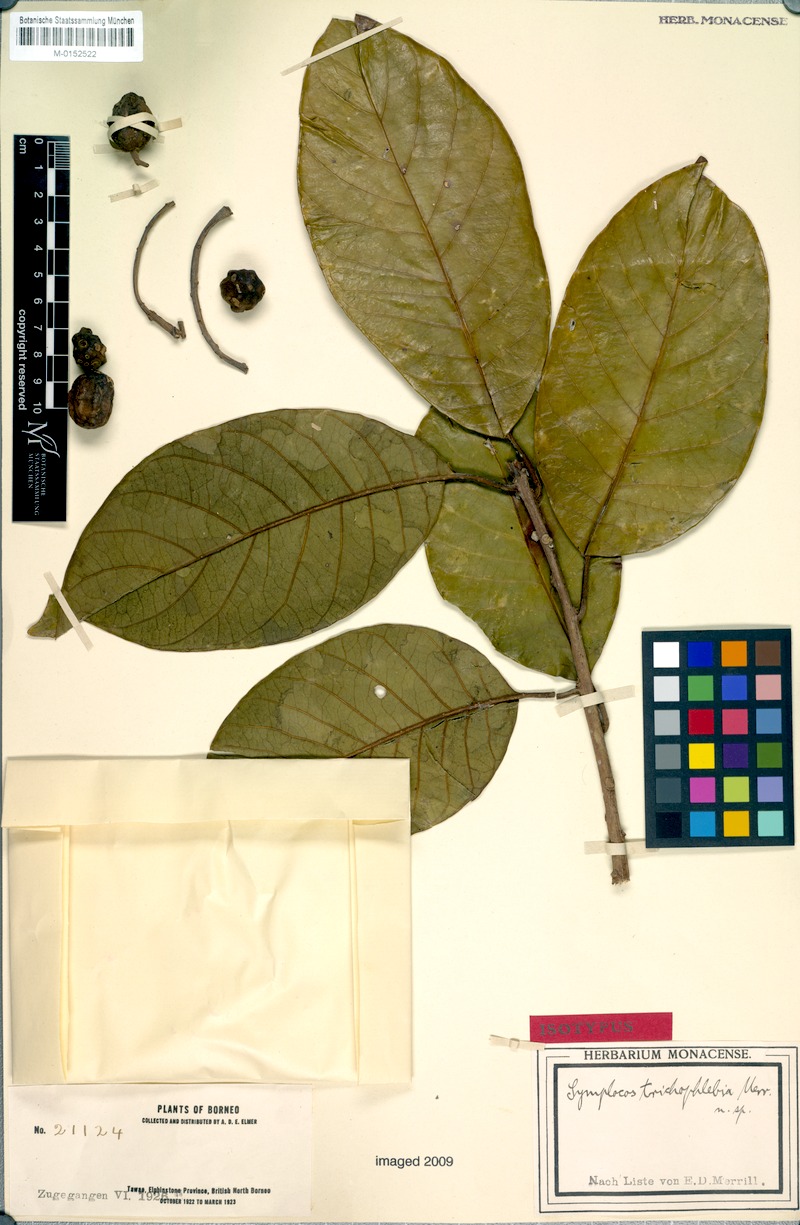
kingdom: Plantae
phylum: Tracheophyta
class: Magnoliopsida
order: Ericales
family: Symplocaceae
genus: Symplocos
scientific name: Symplocos odoratissima
